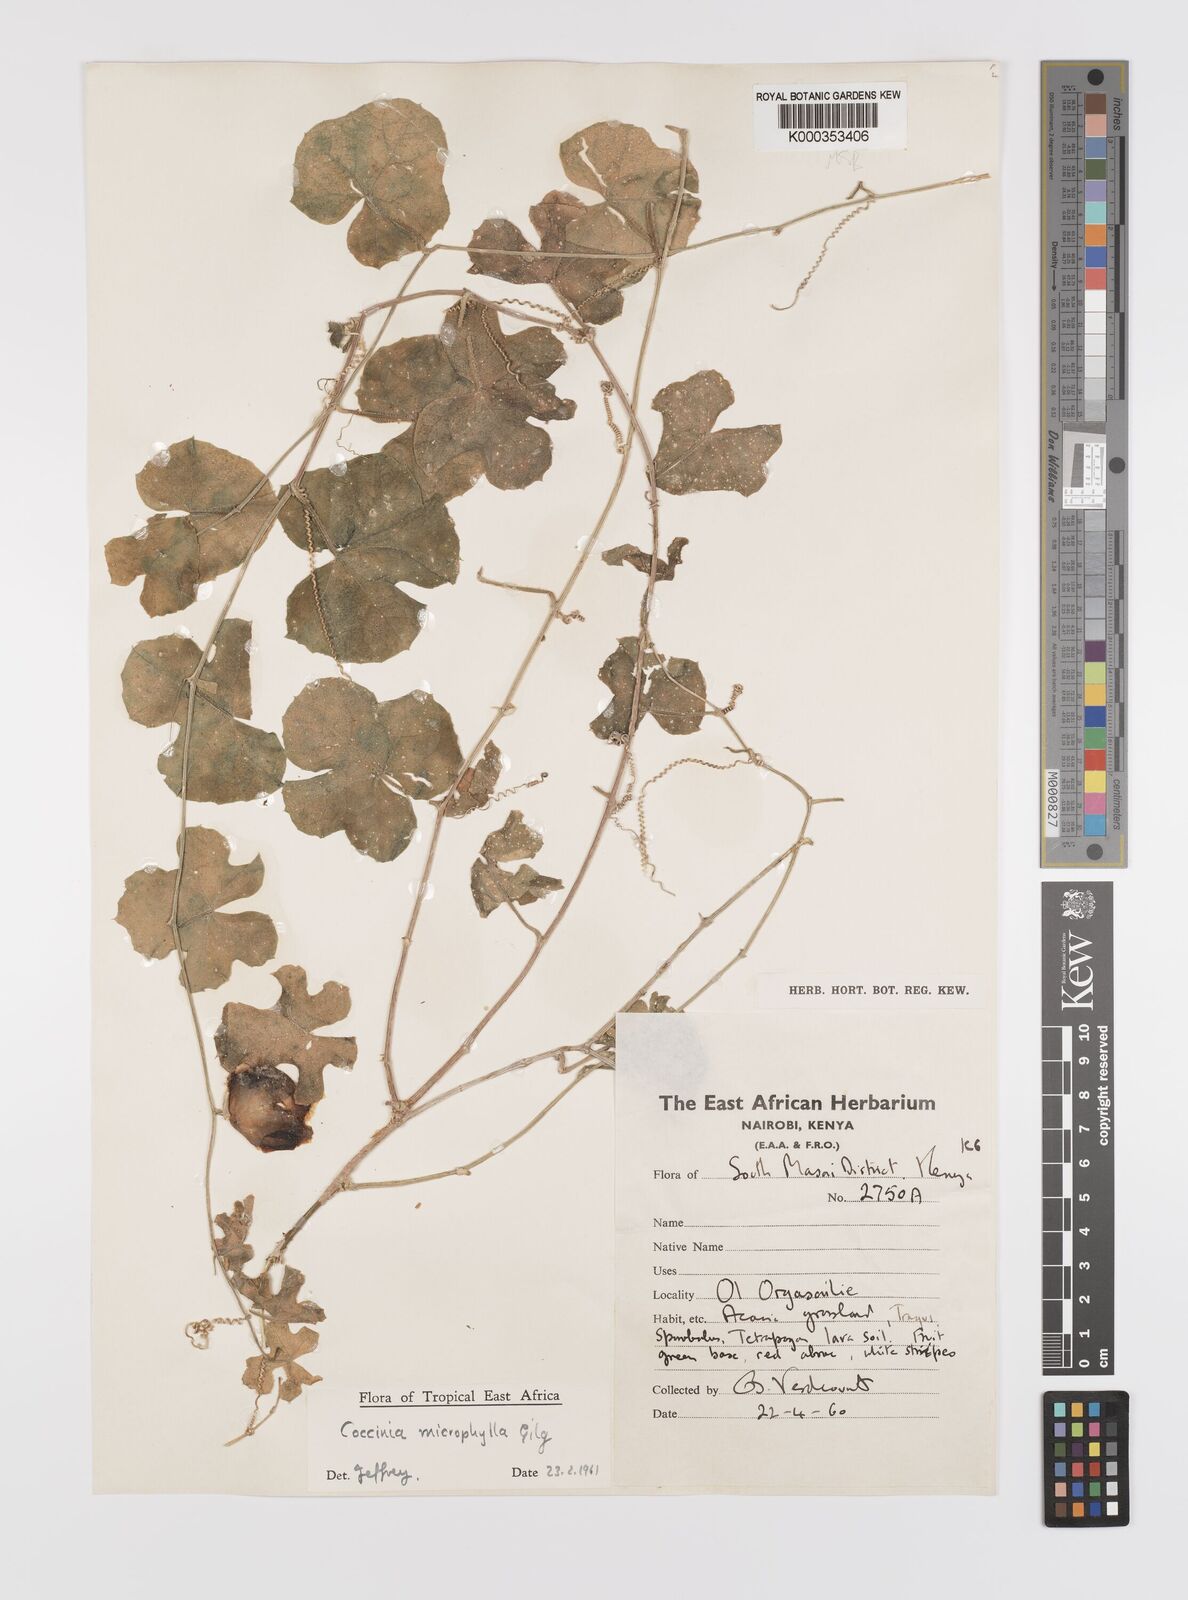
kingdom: Plantae
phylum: Tracheophyta
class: Magnoliopsida
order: Cucurbitales
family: Cucurbitaceae
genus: Coccinia
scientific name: Coccinia microphylla
